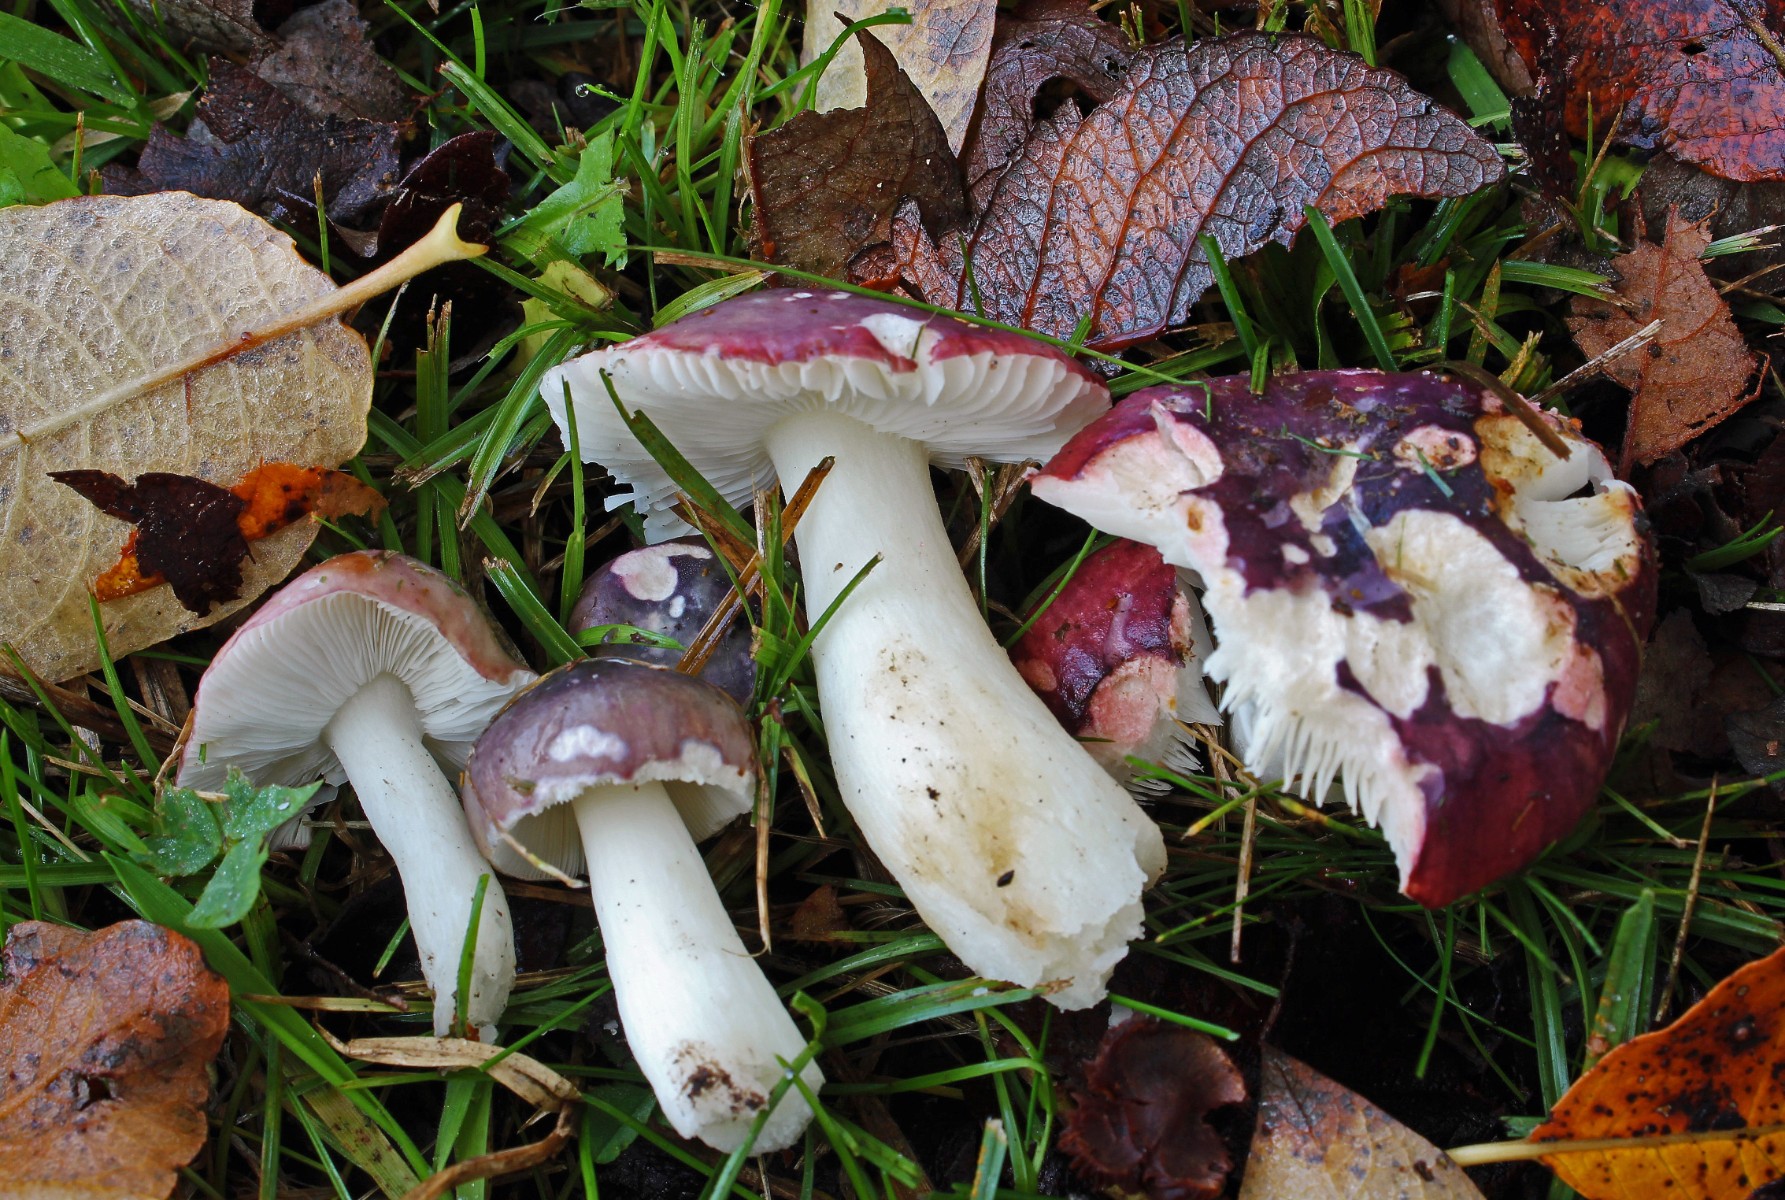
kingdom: Fungi
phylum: Basidiomycota
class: Agaricomycetes
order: Russulales
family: Russulaceae
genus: Russula
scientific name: Russula
